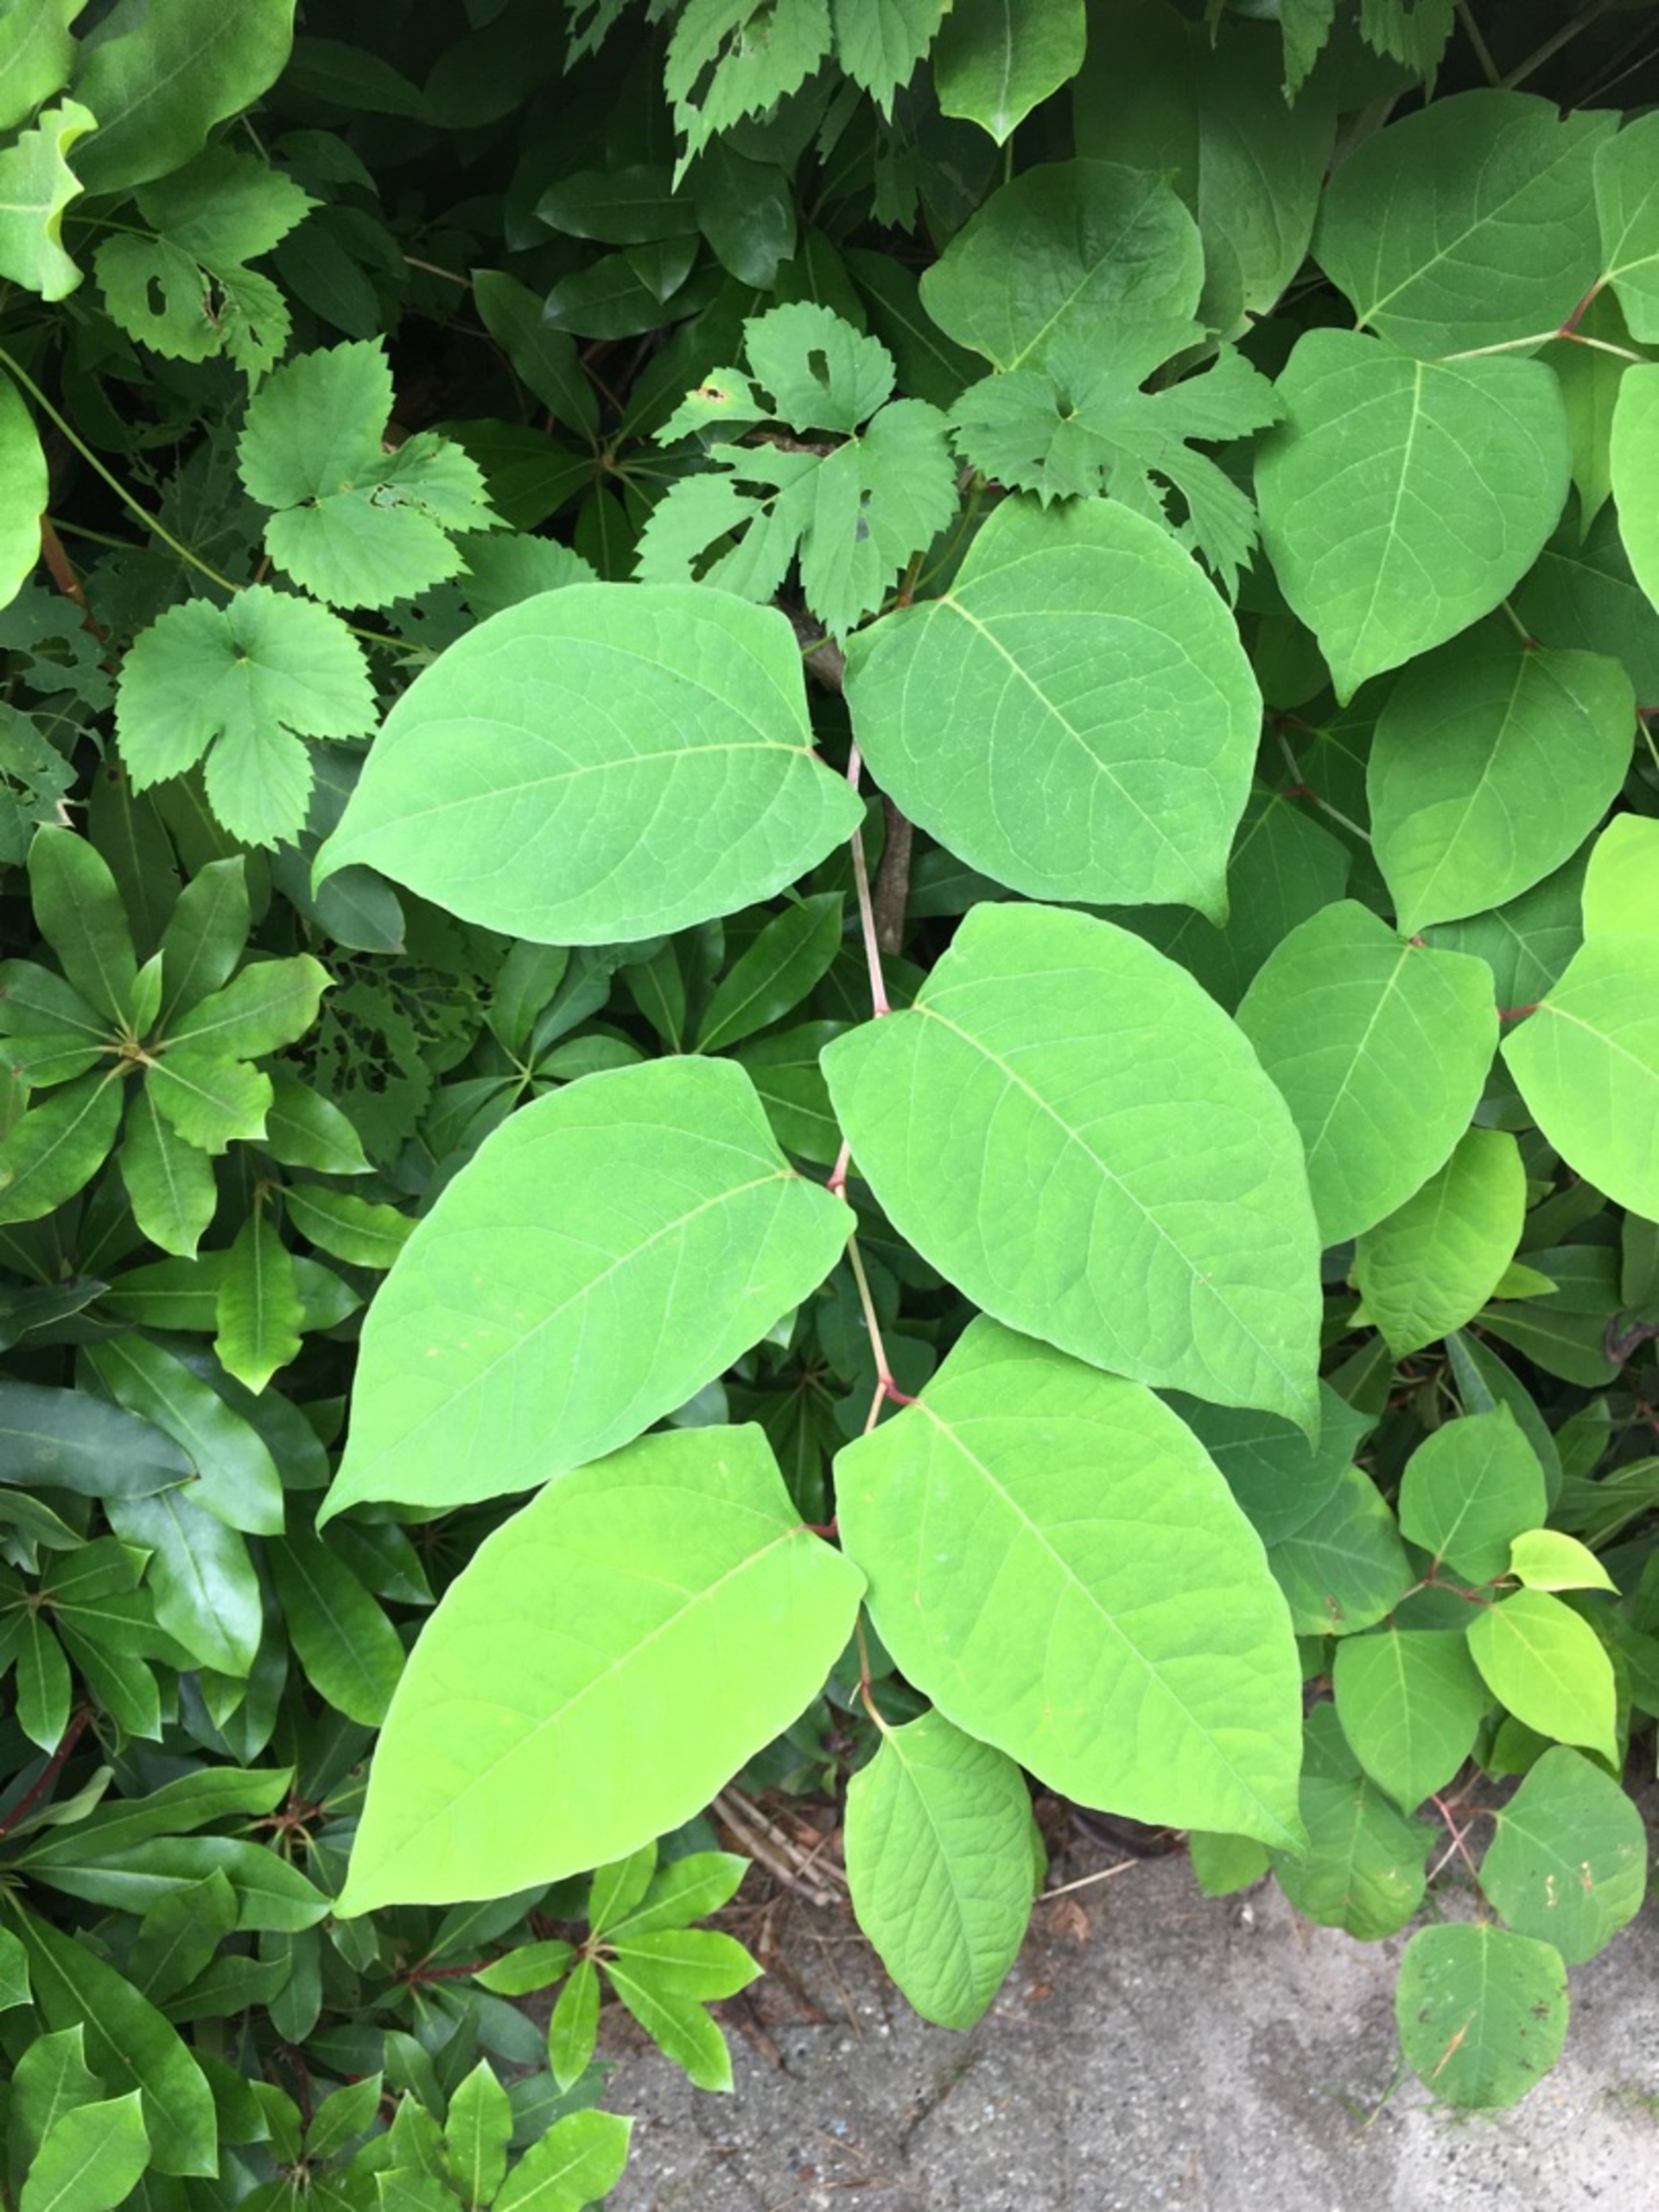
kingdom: Plantae
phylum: Tracheophyta
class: Magnoliopsida
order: Caryophyllales
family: Polygonaceae
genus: Reynoutria
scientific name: Reynoutria japonica
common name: Japan-pileurt
